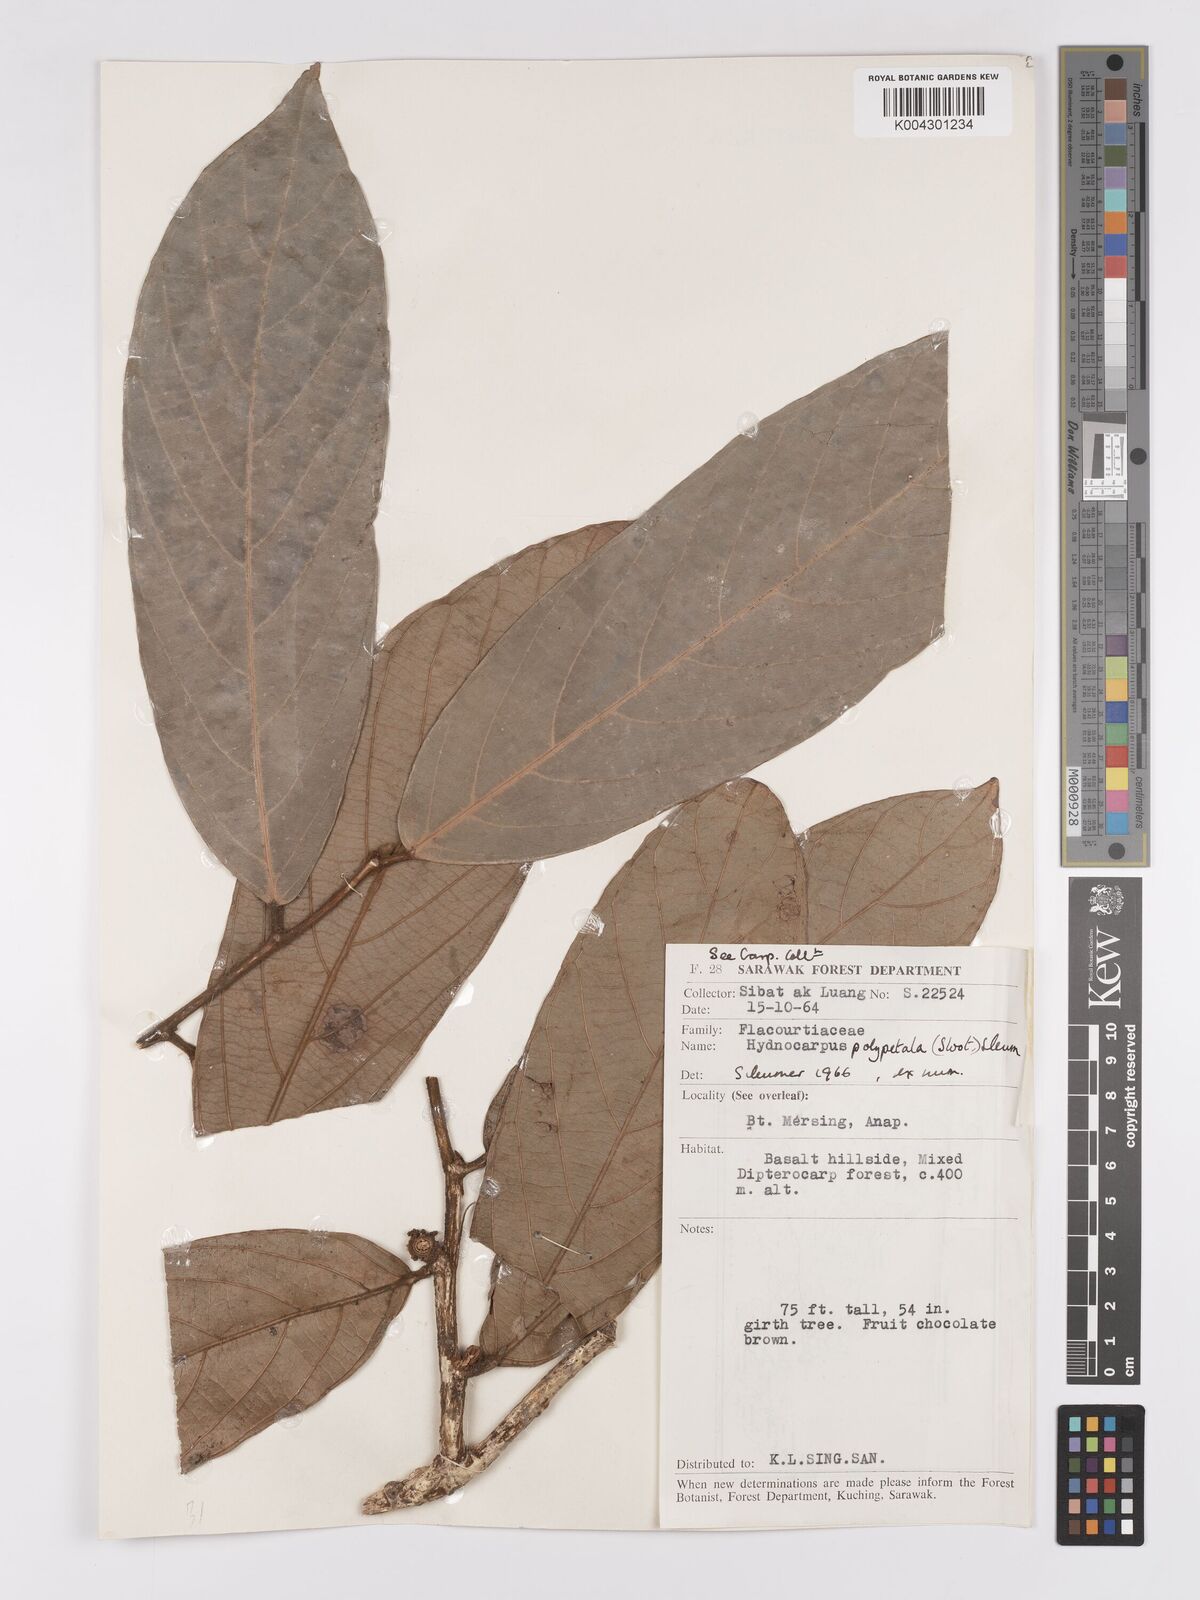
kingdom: Plantae
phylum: Tracheophyta
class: Magnoliopsida
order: Malpighiales
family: Achariaceae
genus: Hydnocarpus
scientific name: Hydnocarpus polypetalus
